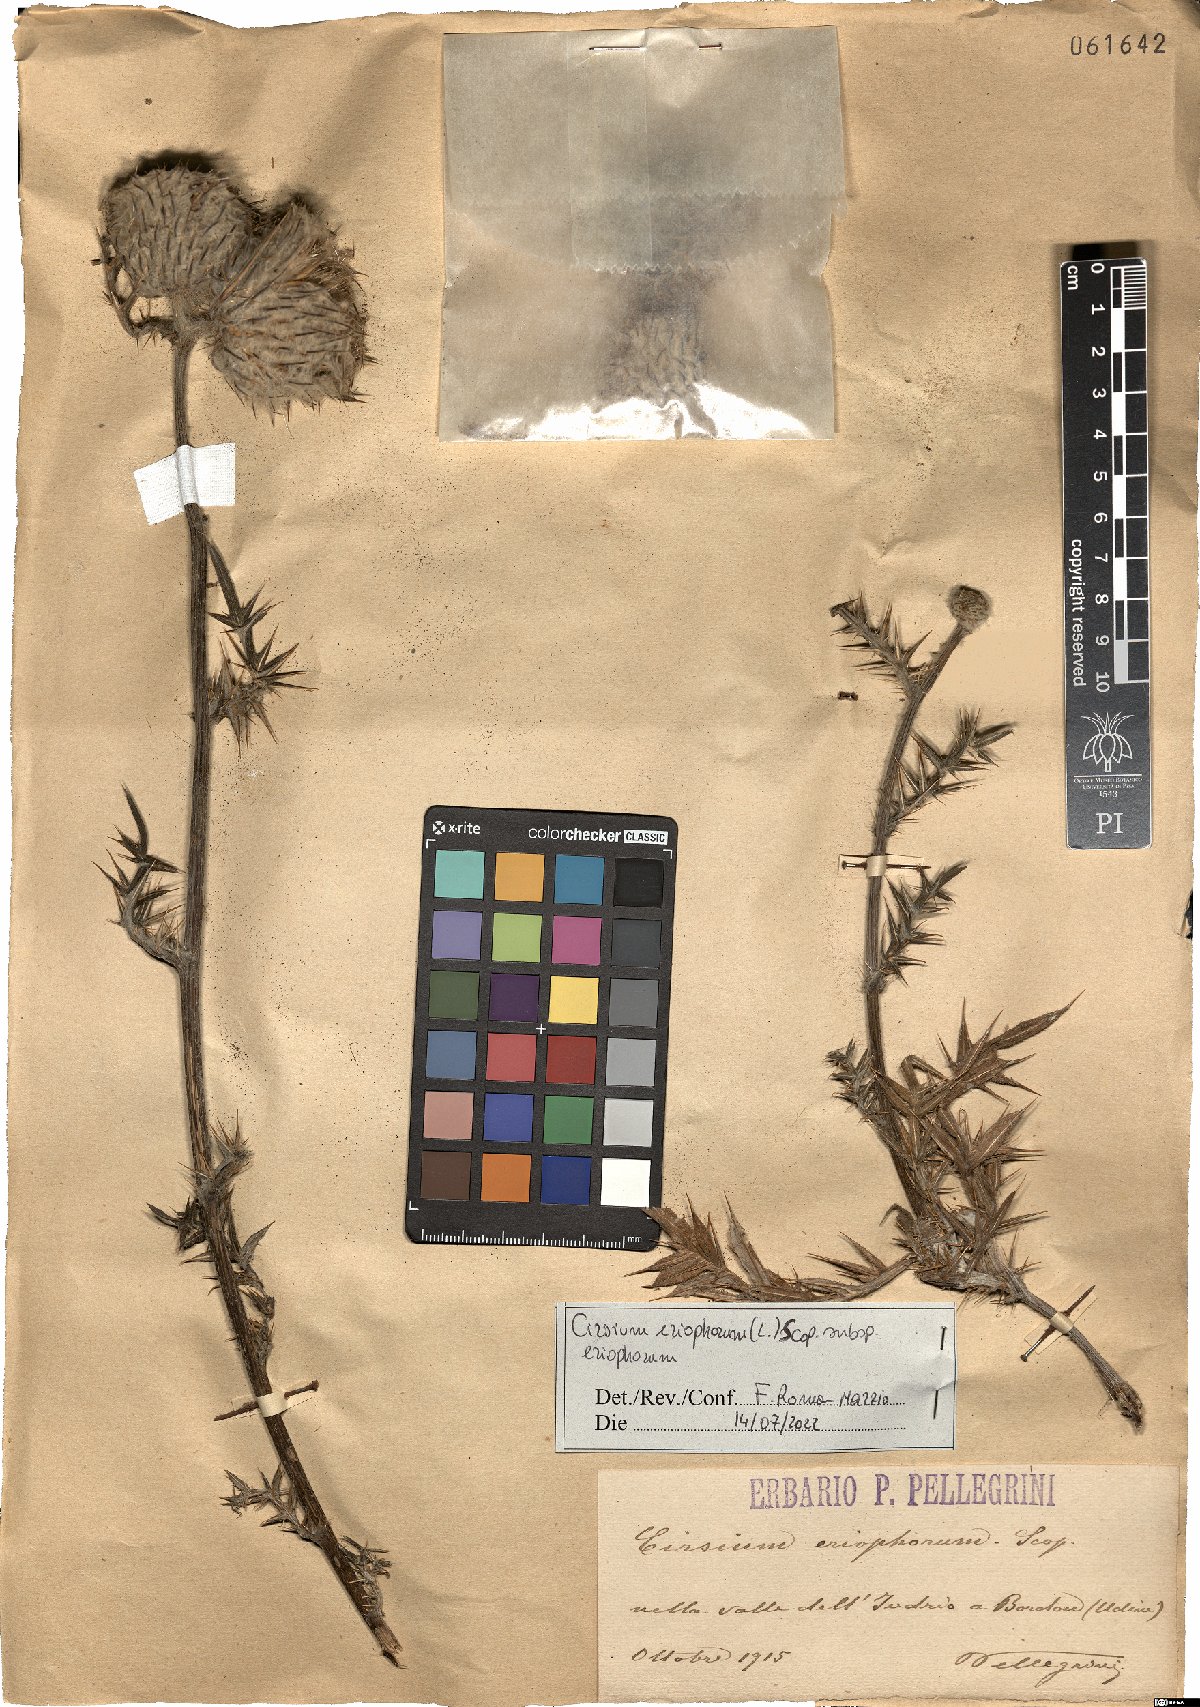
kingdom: Plantae
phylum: Tracheophyta
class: Magnoliopsida
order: Asterales
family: Asteraceae
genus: Lophiolepis
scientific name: Lophiolepis eriophora
